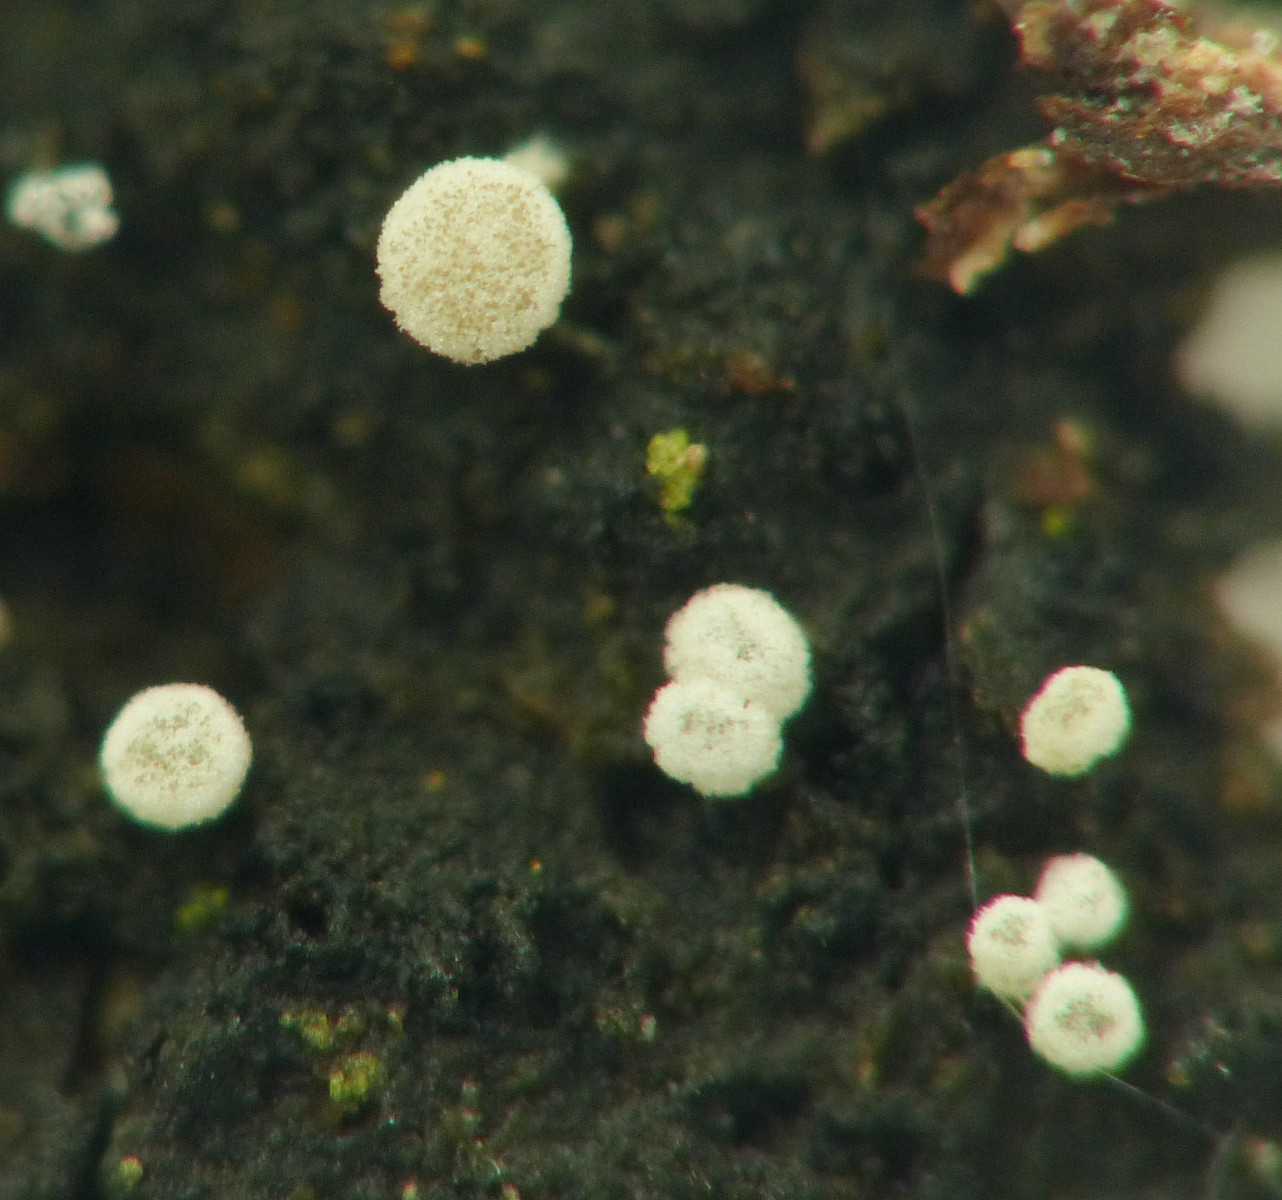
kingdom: Fungi
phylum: Ascomycota
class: Leotiomycetes
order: Helotiales
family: Hyaloscyphaceae
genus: Polydesmia
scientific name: Polydesmia pruinosa
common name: dunskive
